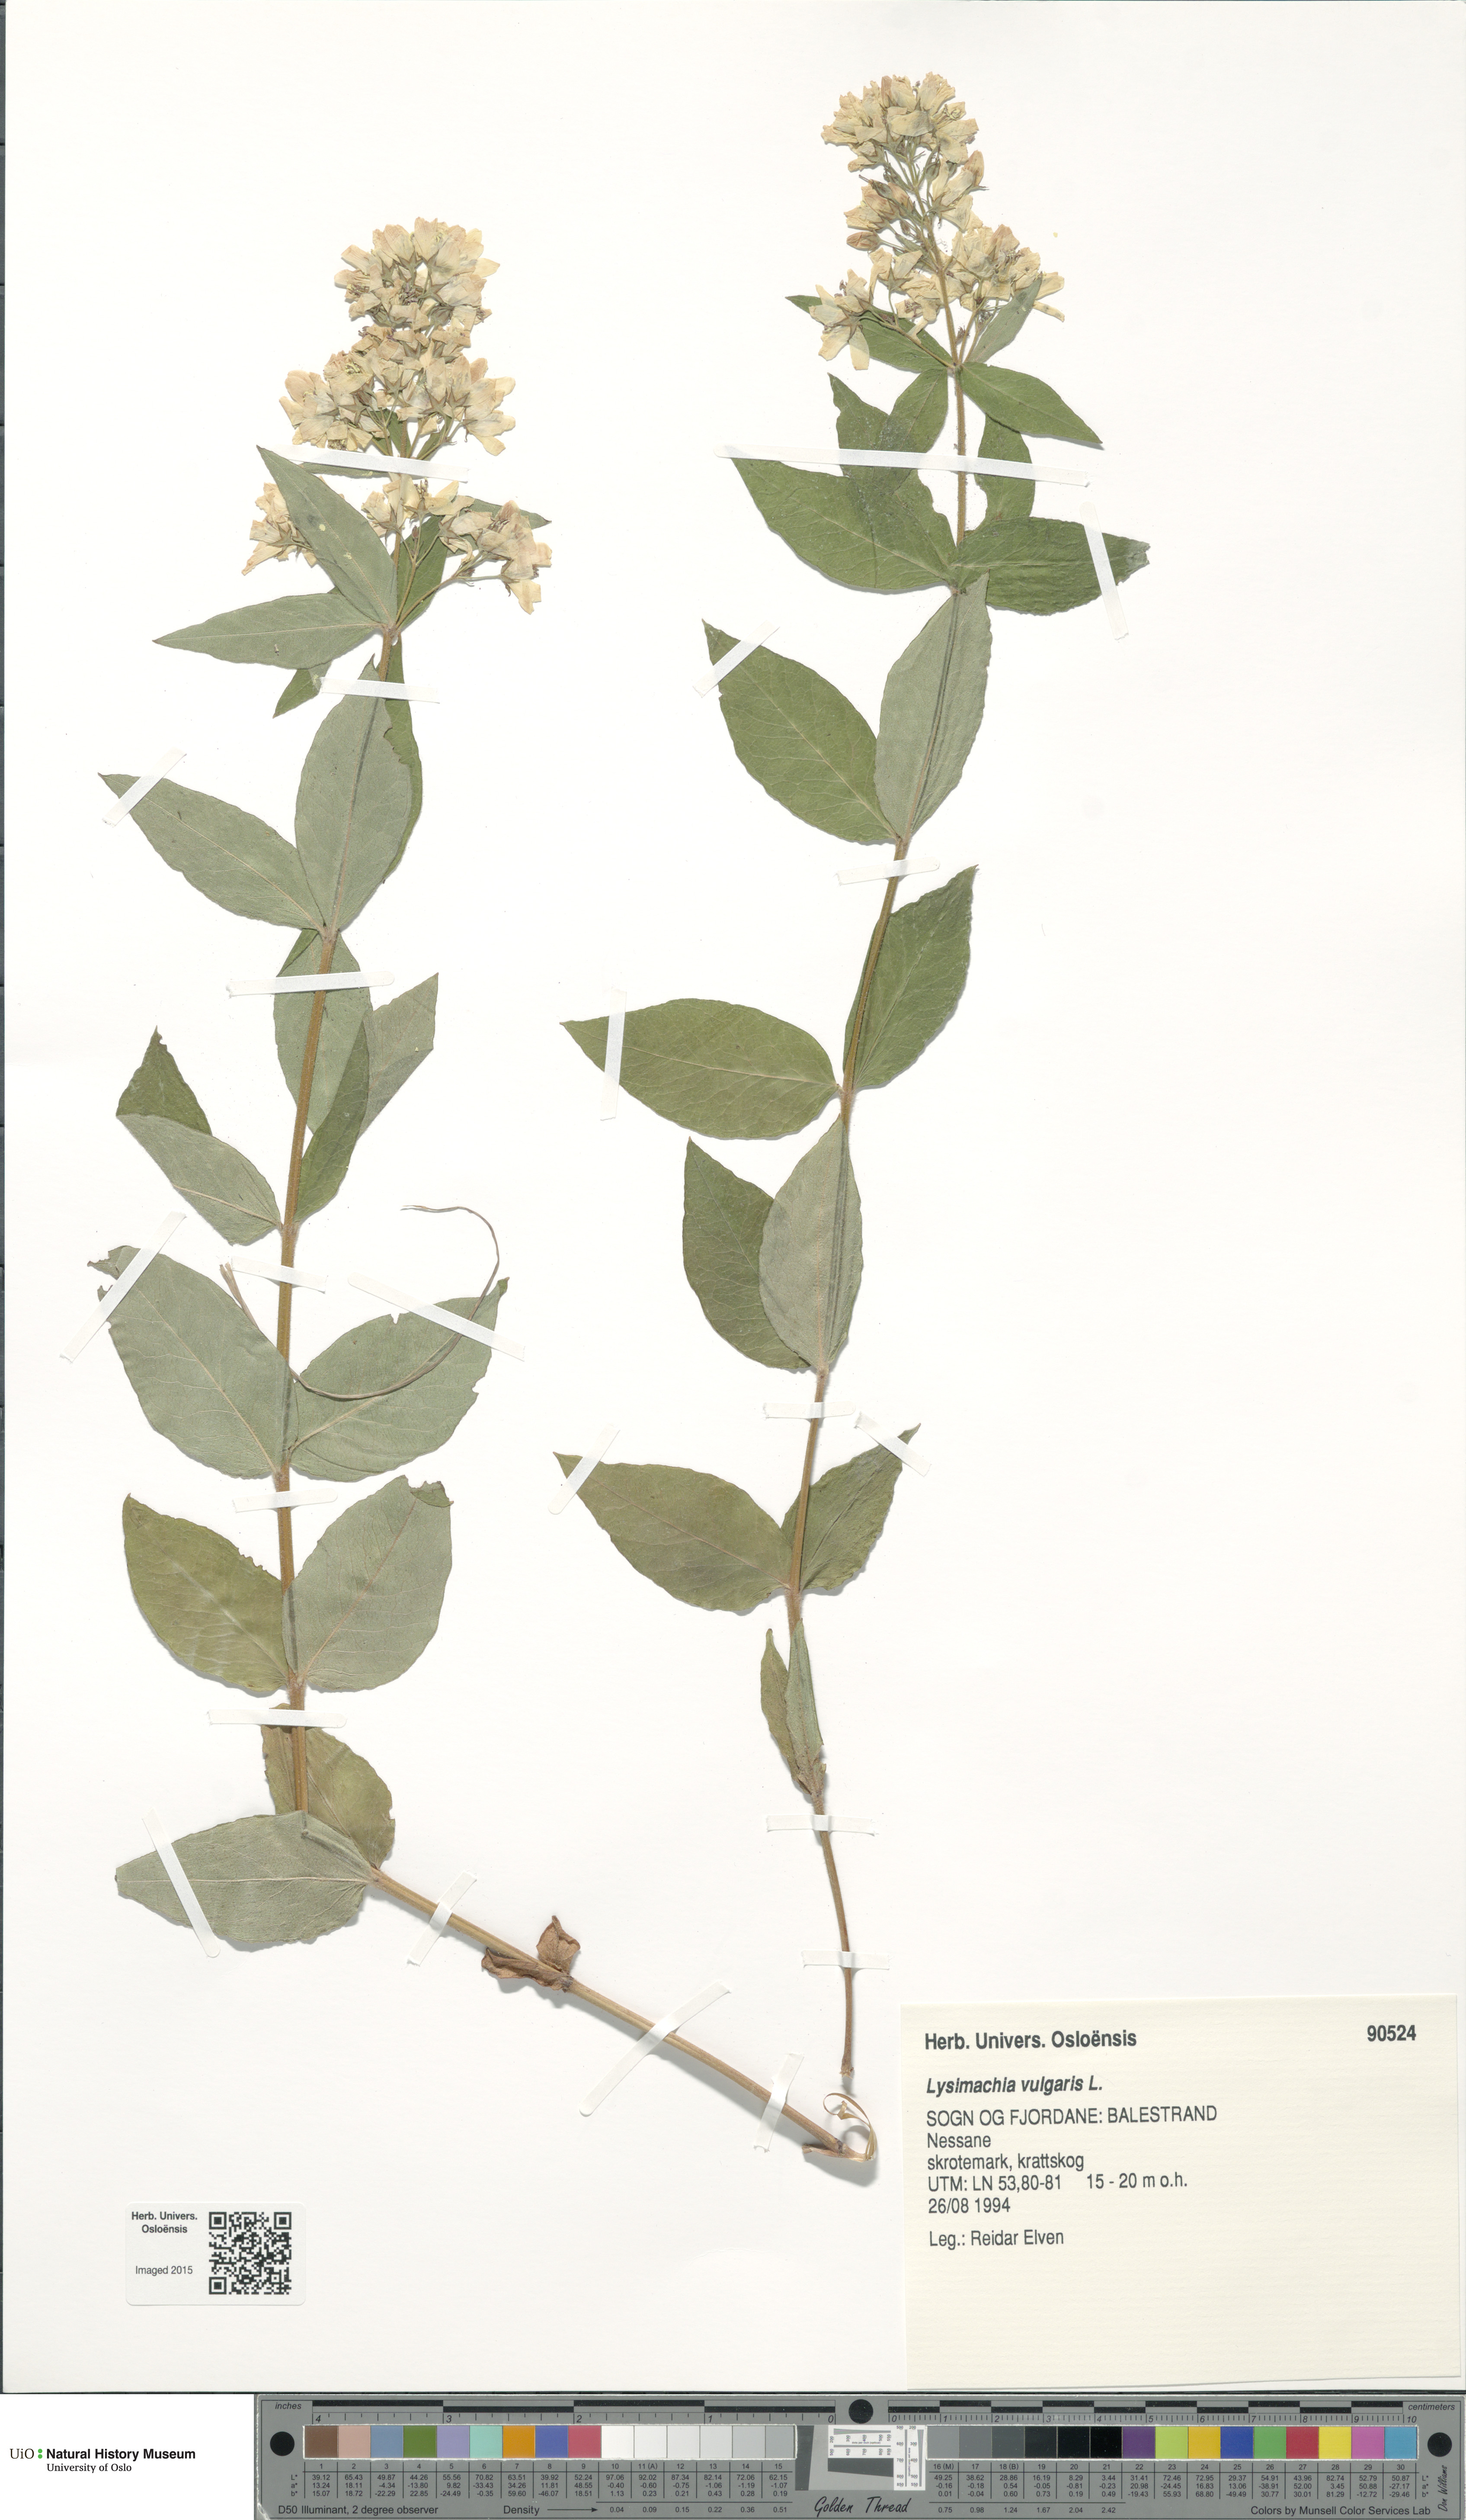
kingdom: Plantae
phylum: Tracheophyta
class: Magnoliopsida
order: Ericales
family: Primulaceae
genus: Lysimachia
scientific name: Lysimachia vulgaris
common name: Yellow loosestrife
